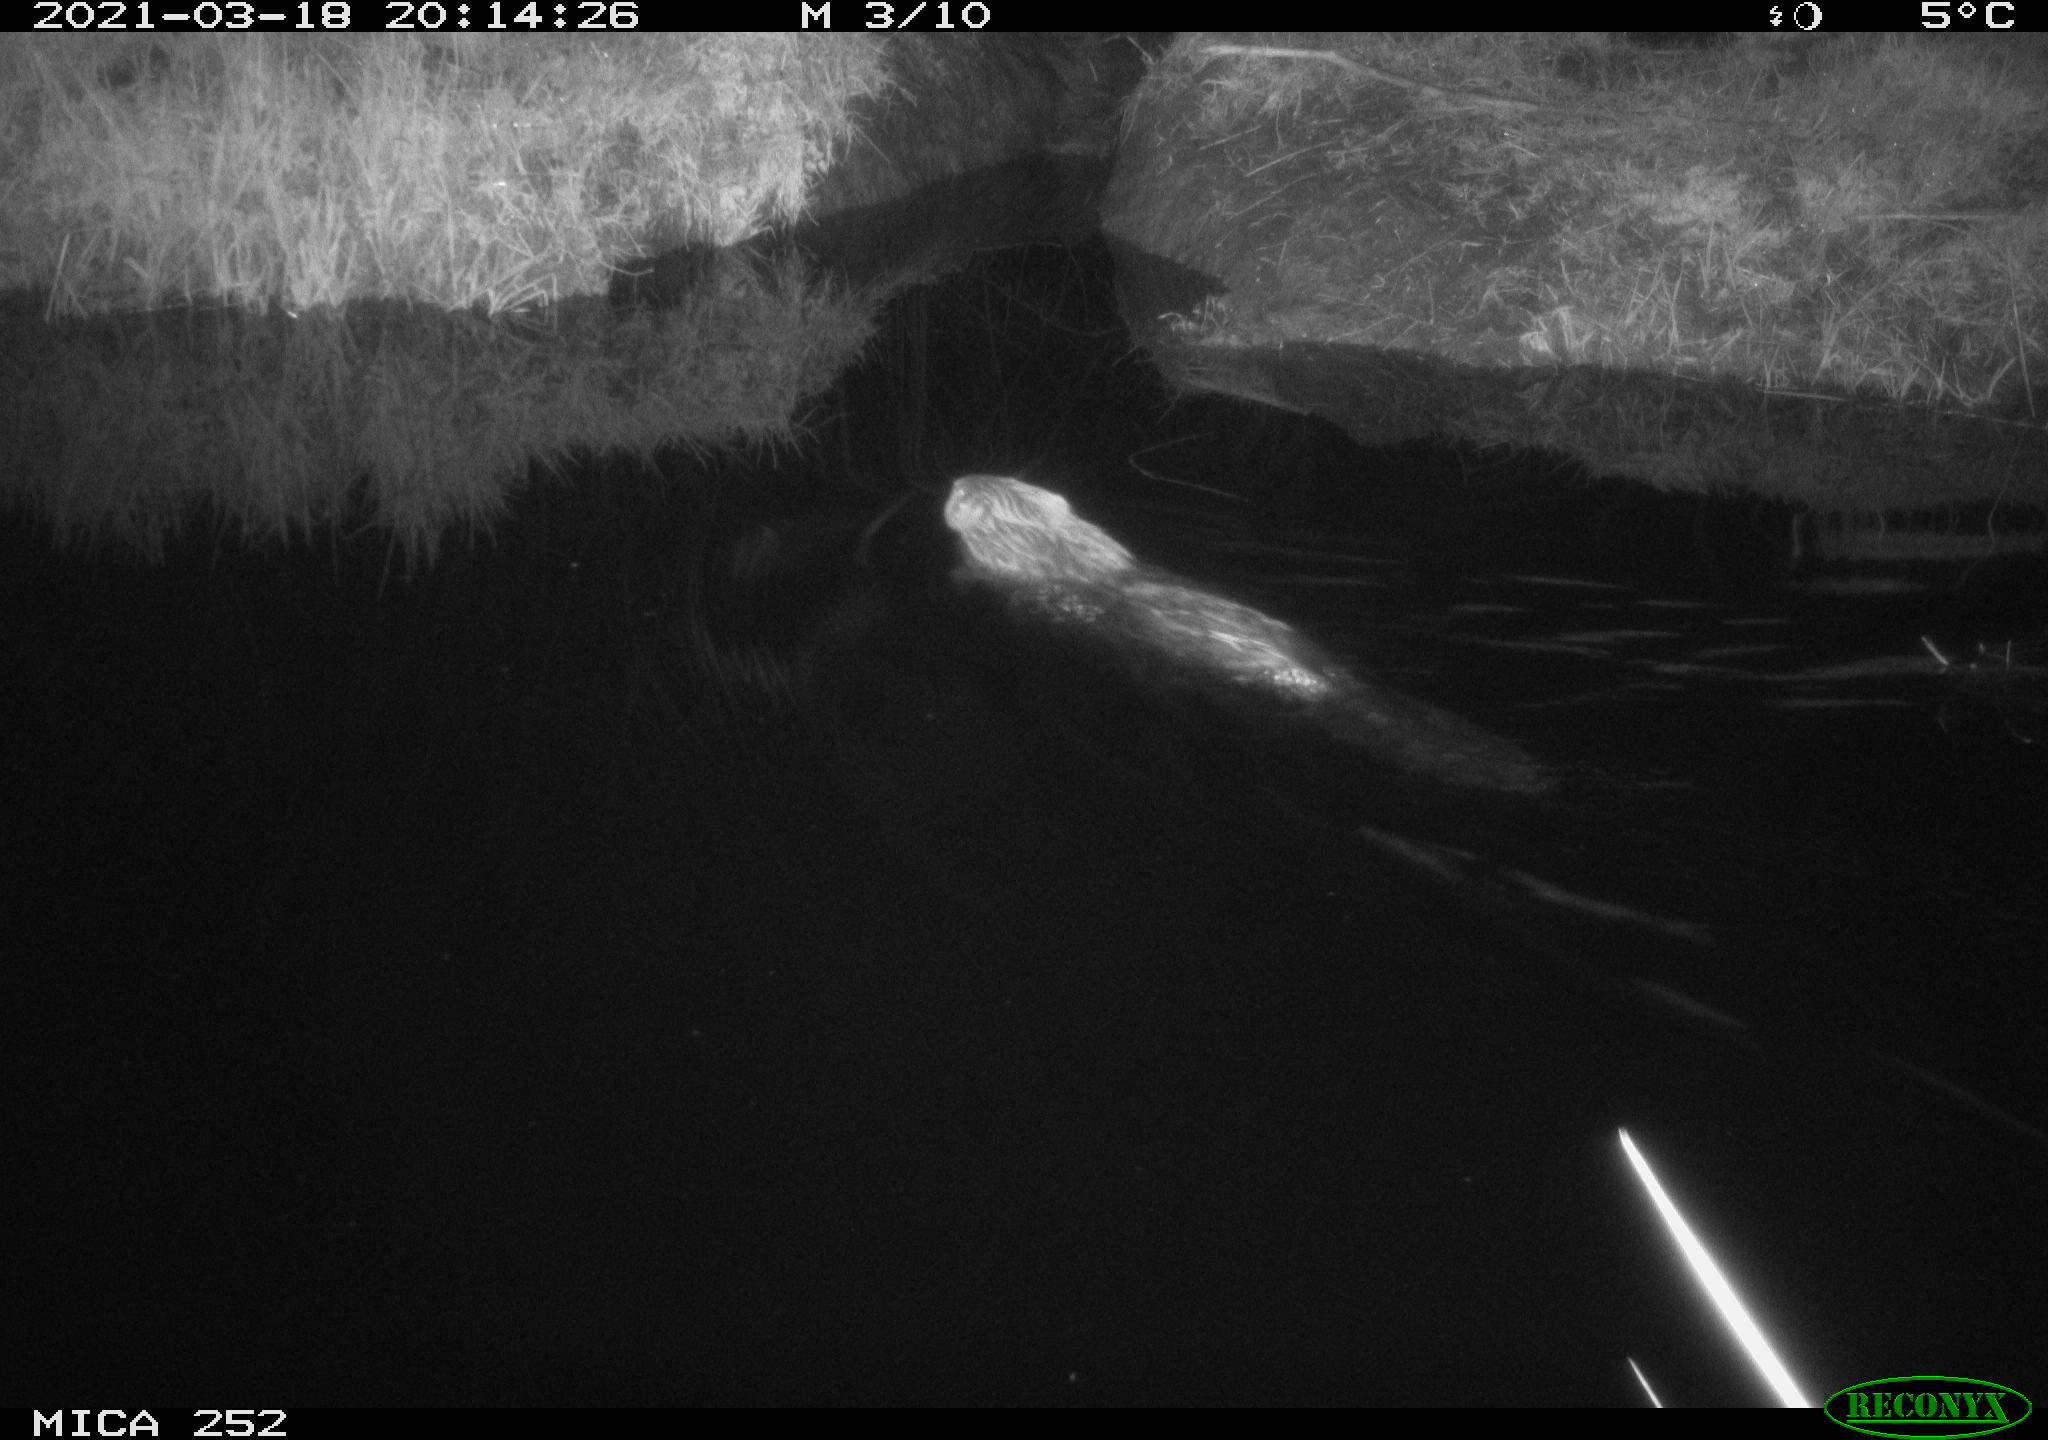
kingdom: Animalia
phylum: Chordata
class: Mammalia
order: Rodentia
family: Castoridae
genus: Castor
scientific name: Castor fiber
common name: Eurasian beaver
